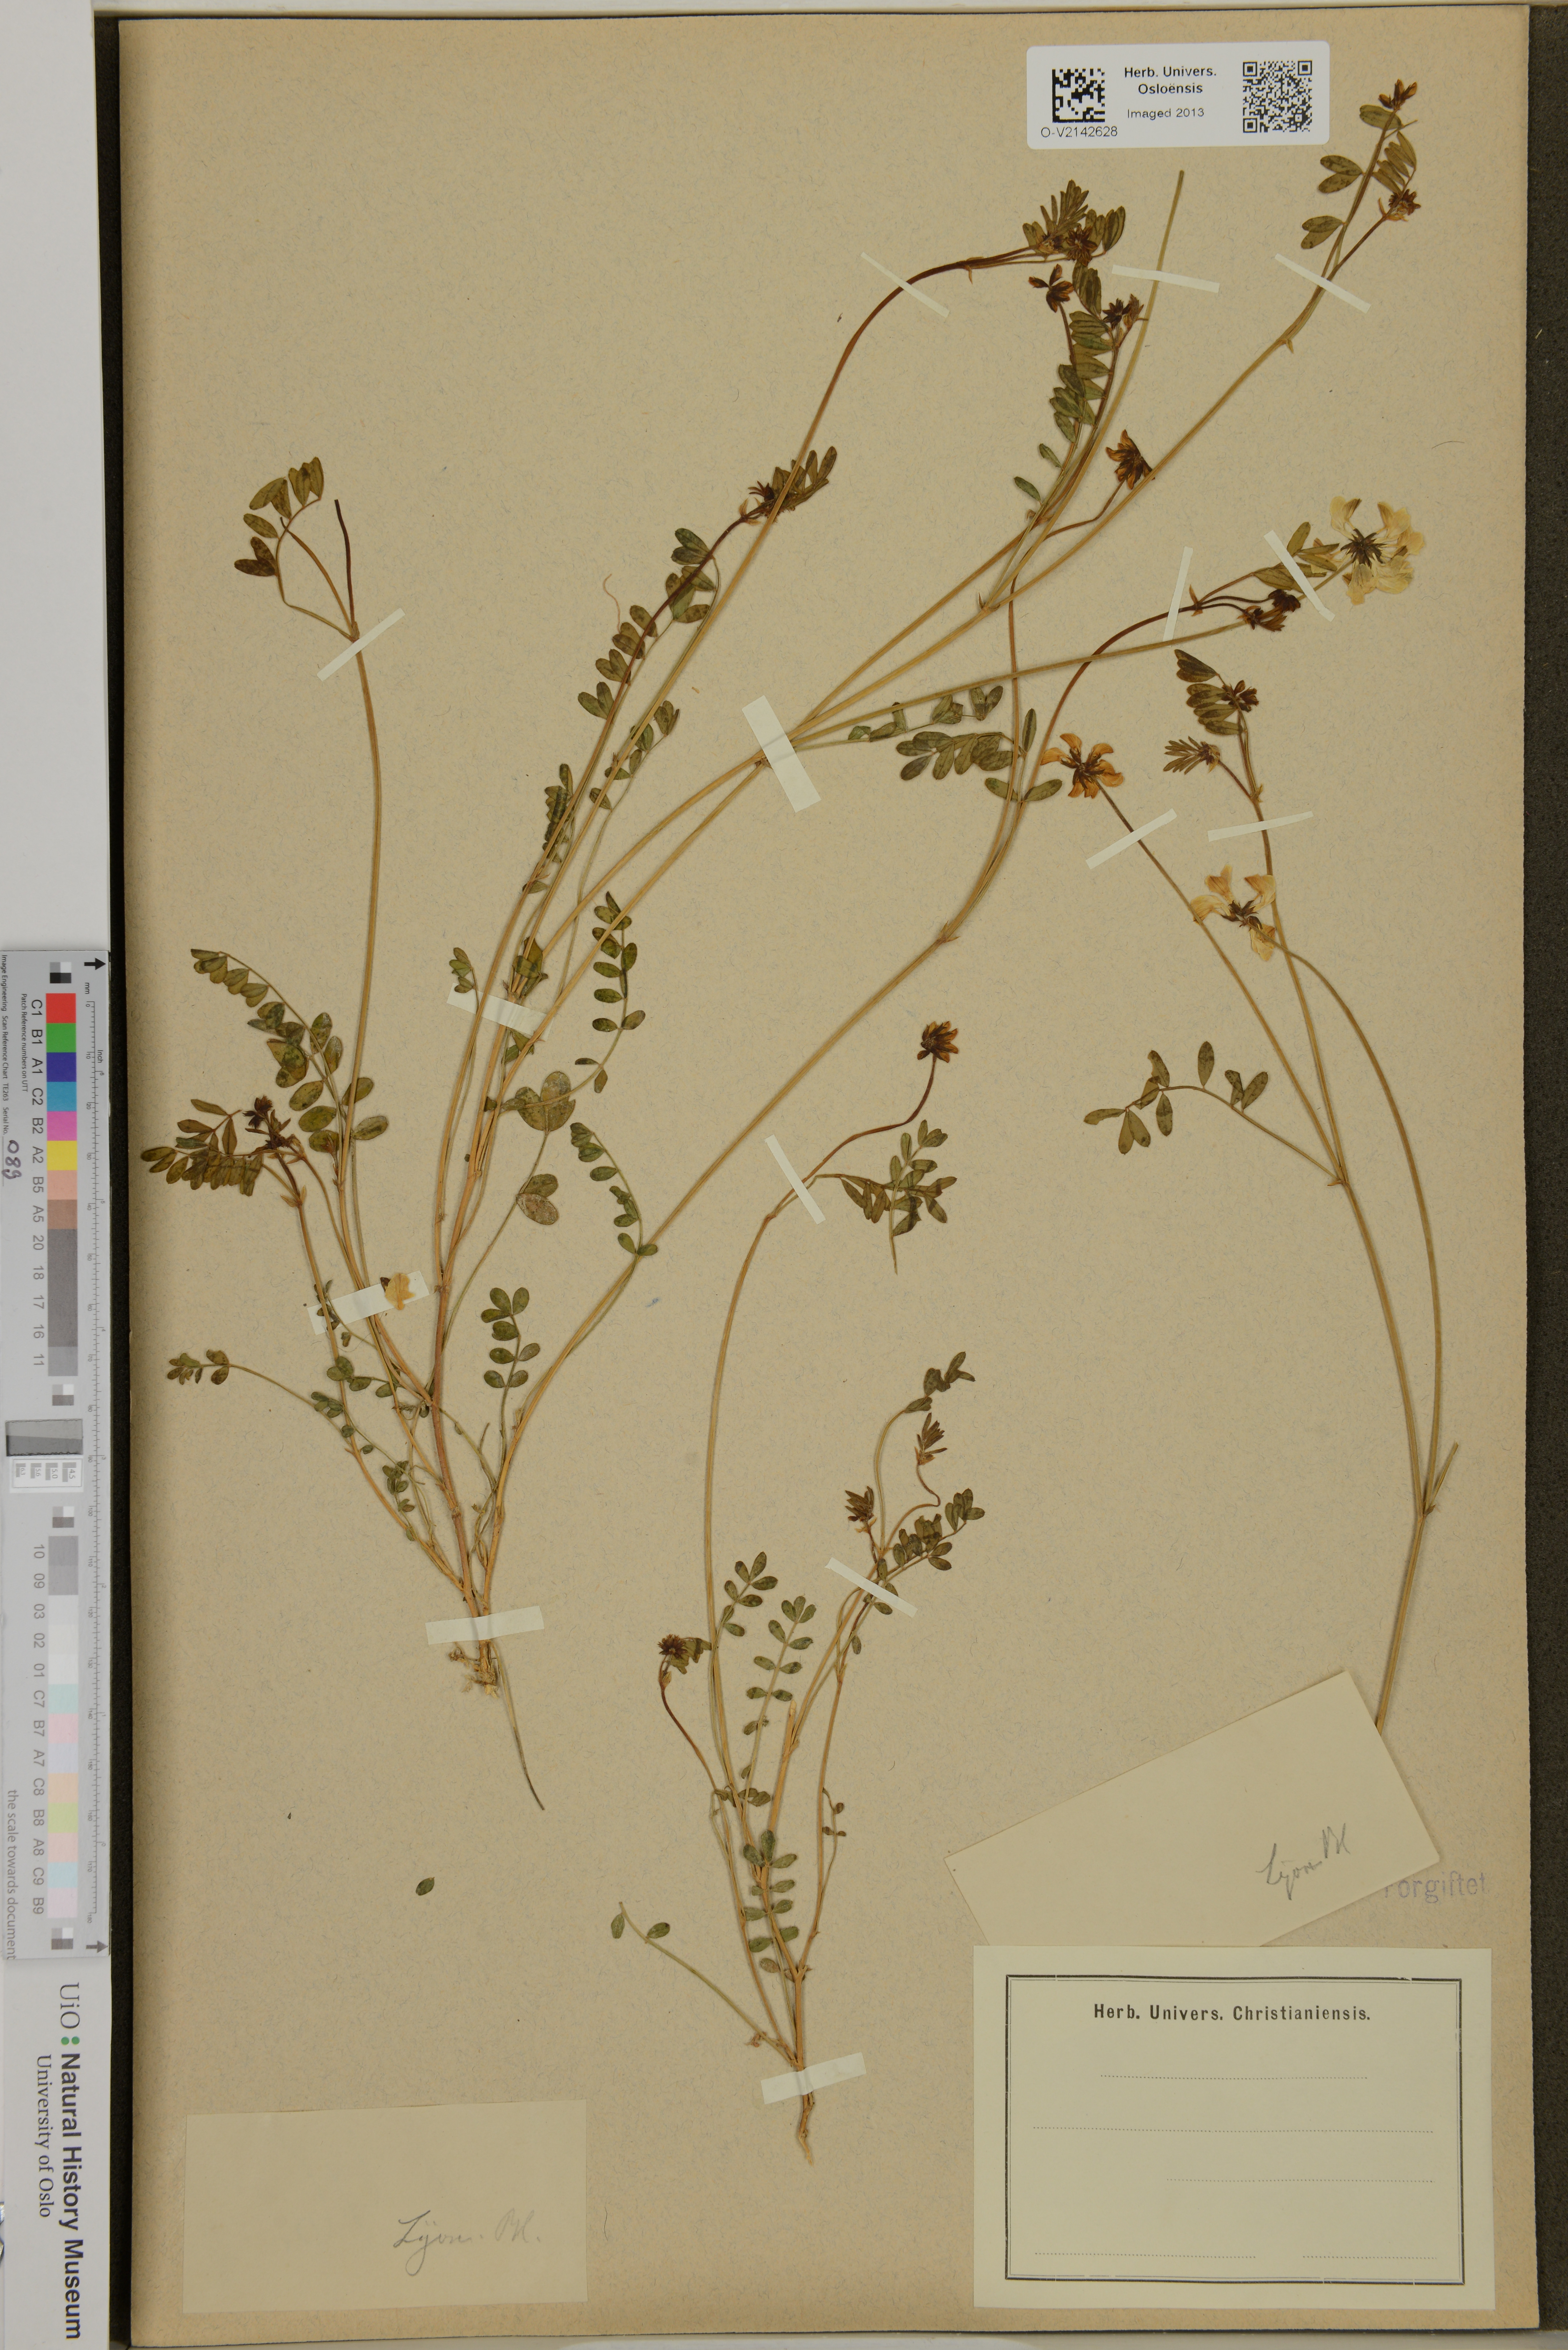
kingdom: Plantae
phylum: Tracheophyta
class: Magnoliopsida
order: Fabales
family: Fabaceae
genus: Astragalus
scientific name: Astragalus
